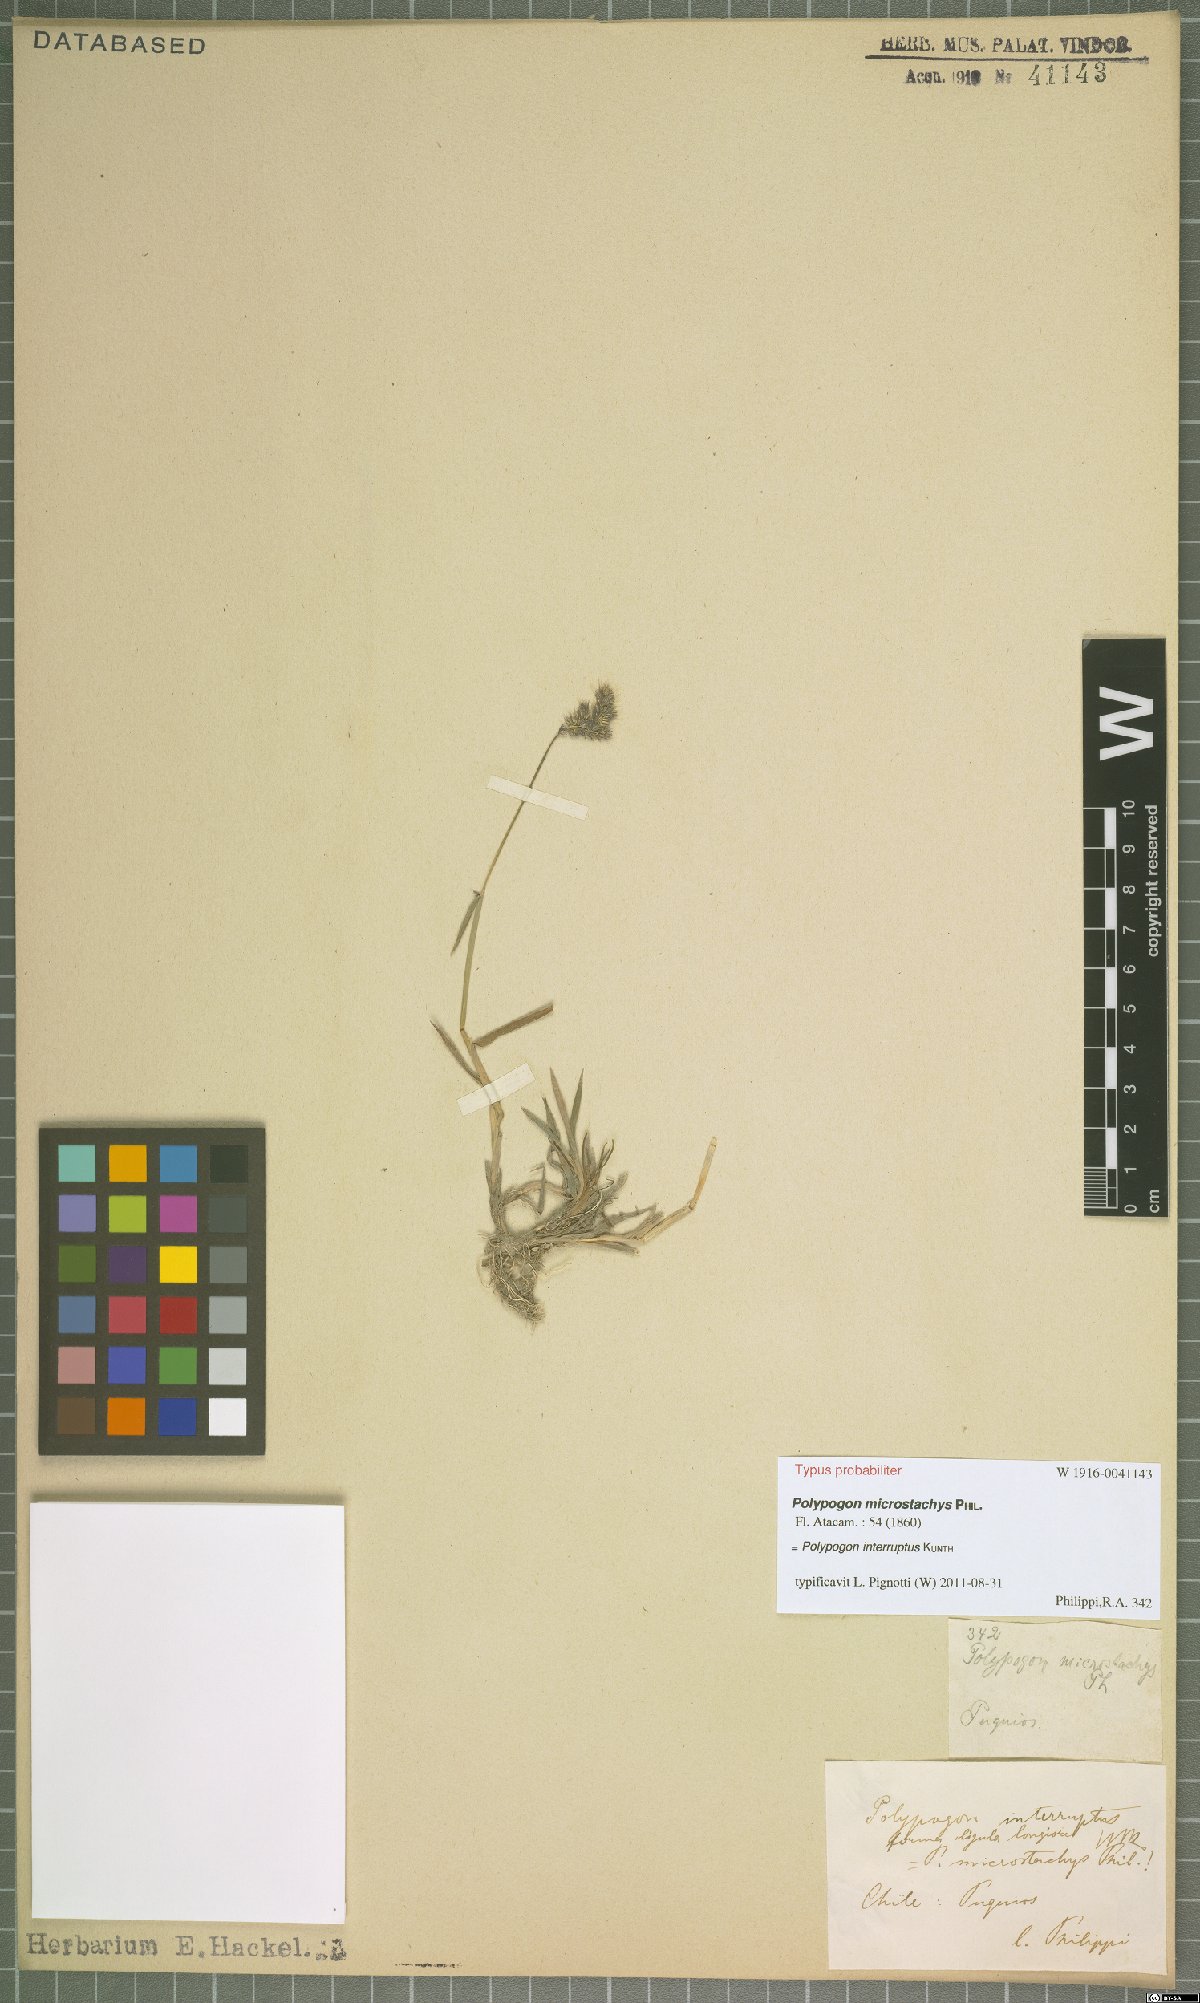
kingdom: Plantae
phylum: Tracheophyta
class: Liliopsida
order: Poales
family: Poaceae
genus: Polypogon
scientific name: Polypogon interruptus
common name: Ditch polypogon
